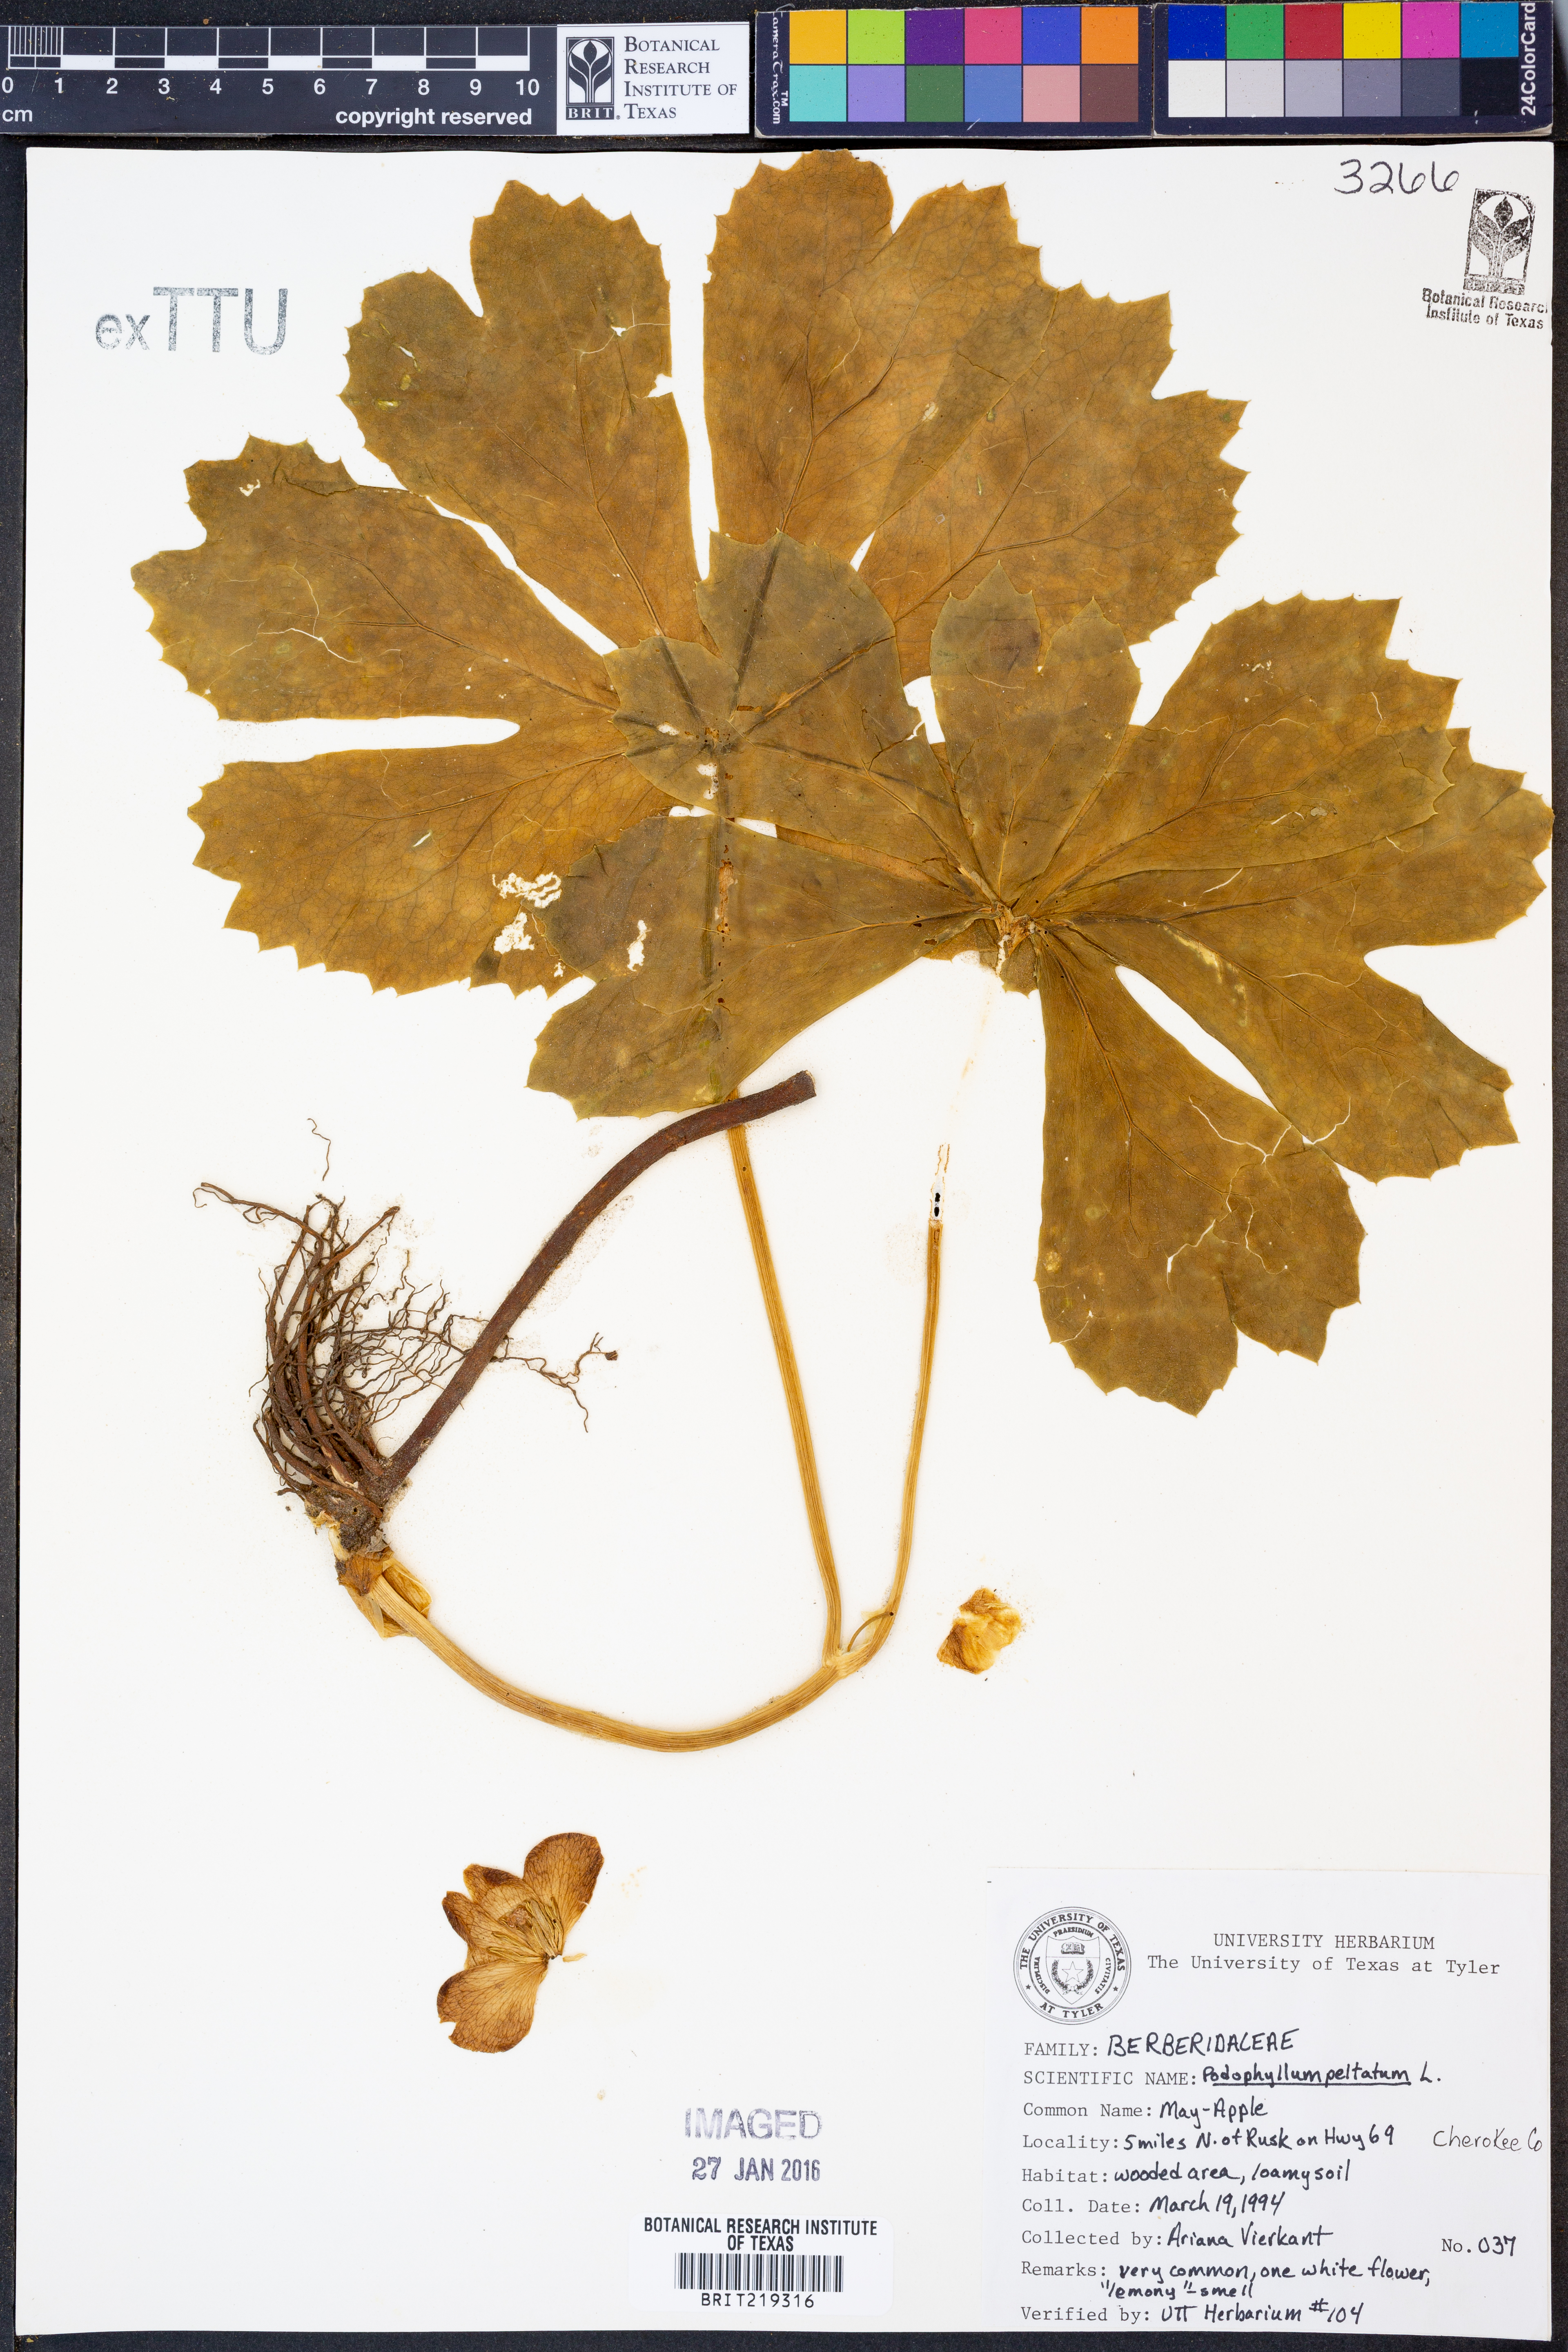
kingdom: Plantae
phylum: Tracheophyta
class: Magnoliopsida
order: Ranunculales
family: Berberidaceae
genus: Podophyllum
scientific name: Podophyllum peltatum
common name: Wild mandrake
